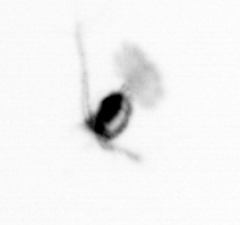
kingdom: Animalia
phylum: Arthropoda
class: Copepoda
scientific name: Copepoda
